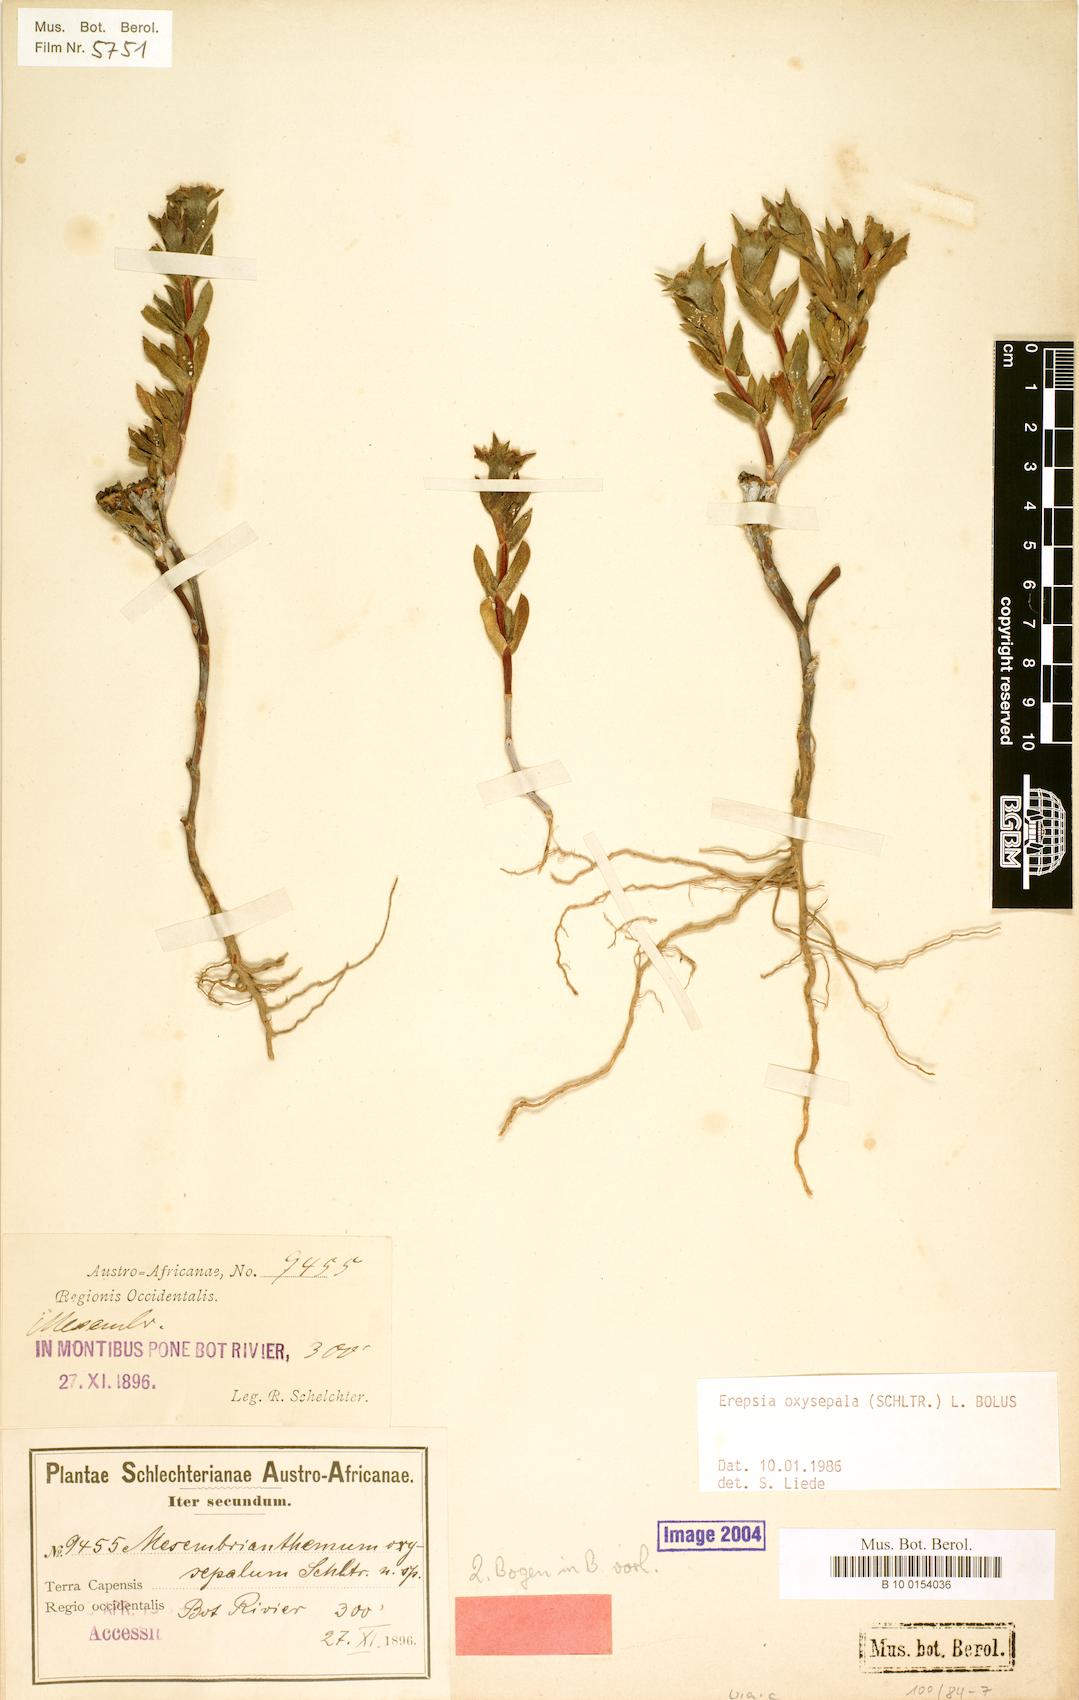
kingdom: Plantae
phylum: Tracheophyta
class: Magnoliopsida
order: Caryophyllales
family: Aizoaceae
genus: Erepsia
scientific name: Erepsia oxysepala
